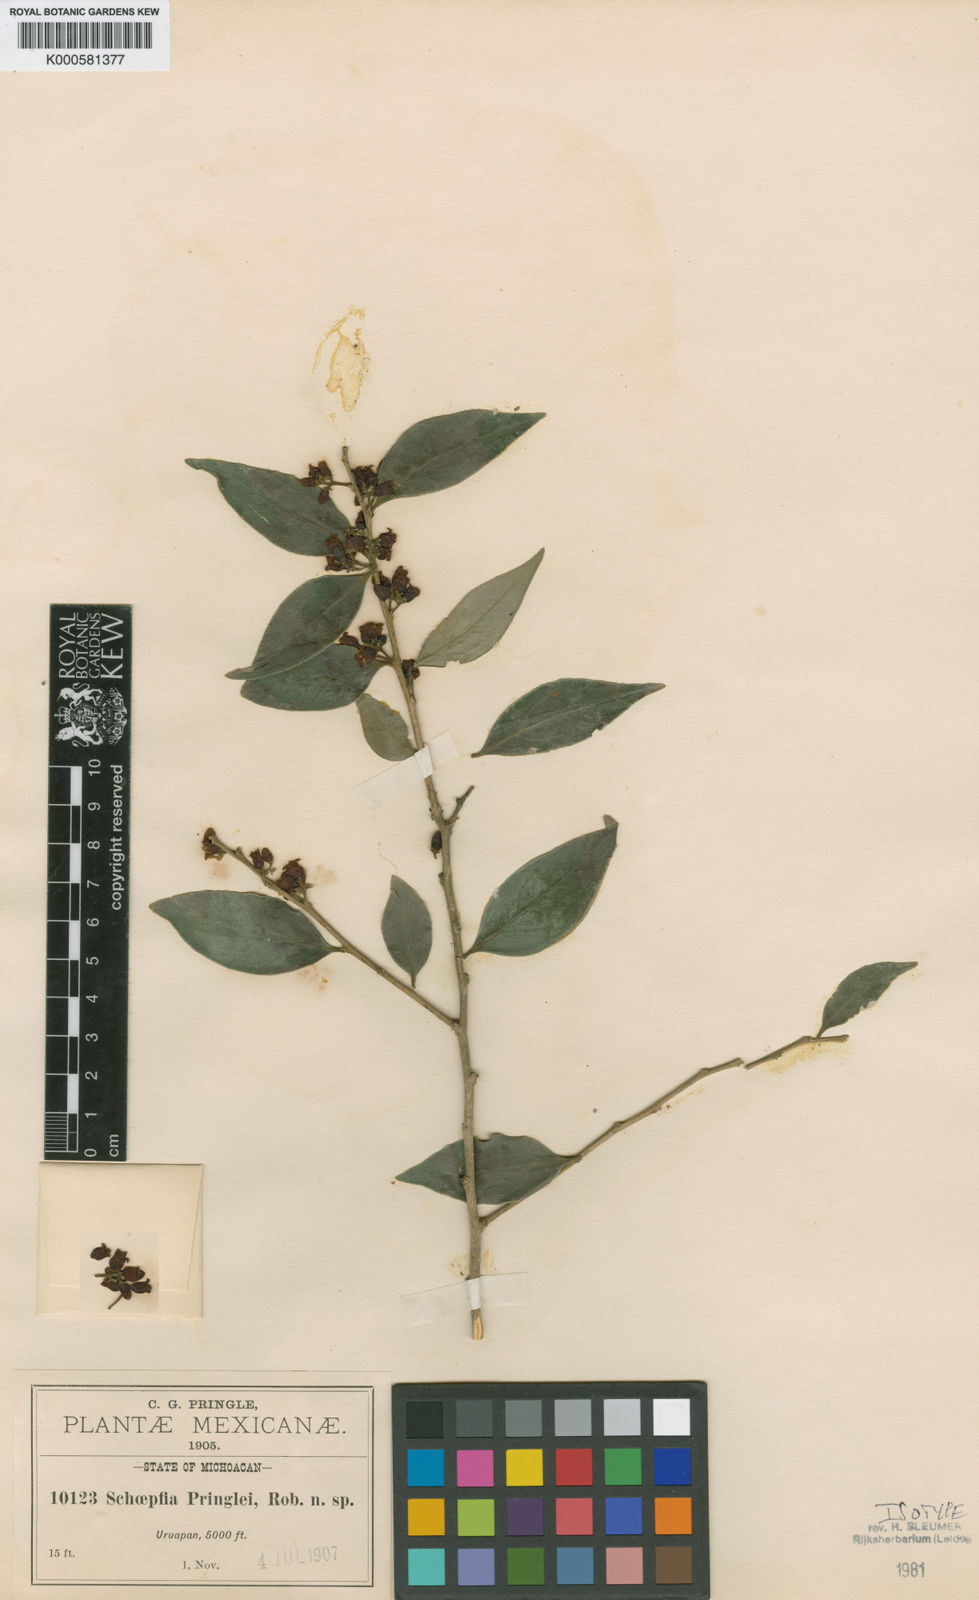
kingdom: Plantae
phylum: Tracheophyta
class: Magnoliopsida
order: Santalales
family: Schoepfiaceae
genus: Schoepfia
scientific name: Schoepfia pringlei
